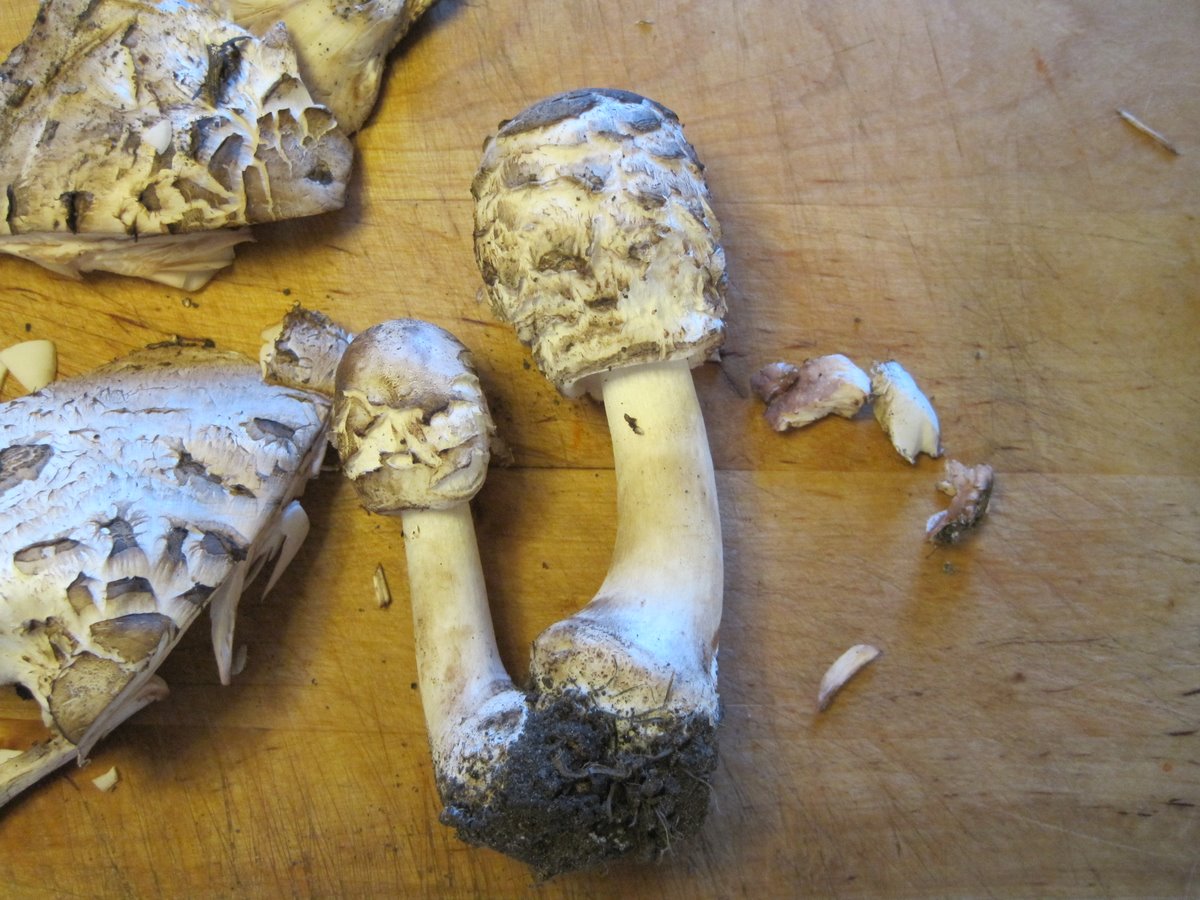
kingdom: Fungi
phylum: Basidiomycota
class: Agaricomycetes
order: Agaricales
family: Agaricaceae
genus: Chlorophyllum
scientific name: Chlorophyllum rhacodes
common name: ægte rabarberhat
